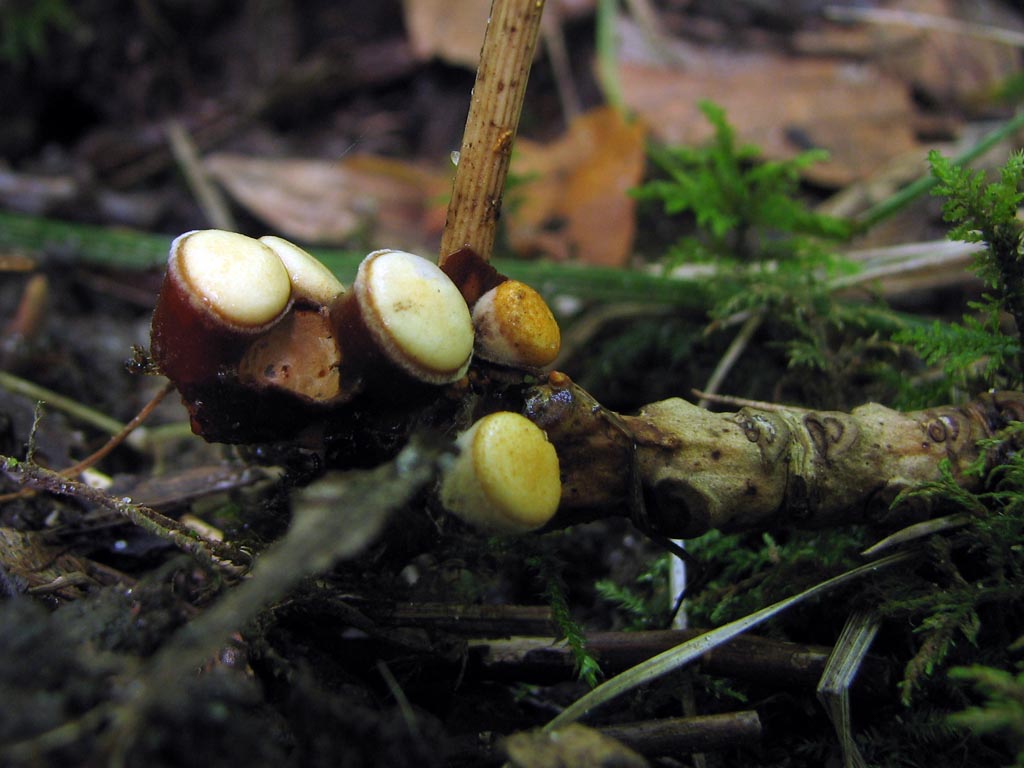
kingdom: Fungi
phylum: Basidiomycota
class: Agaricomycetes
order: Agaricales
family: Nidulariaceae
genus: Crucibulum
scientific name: Crucibulum crucibuliforme
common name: krukkesvamp
